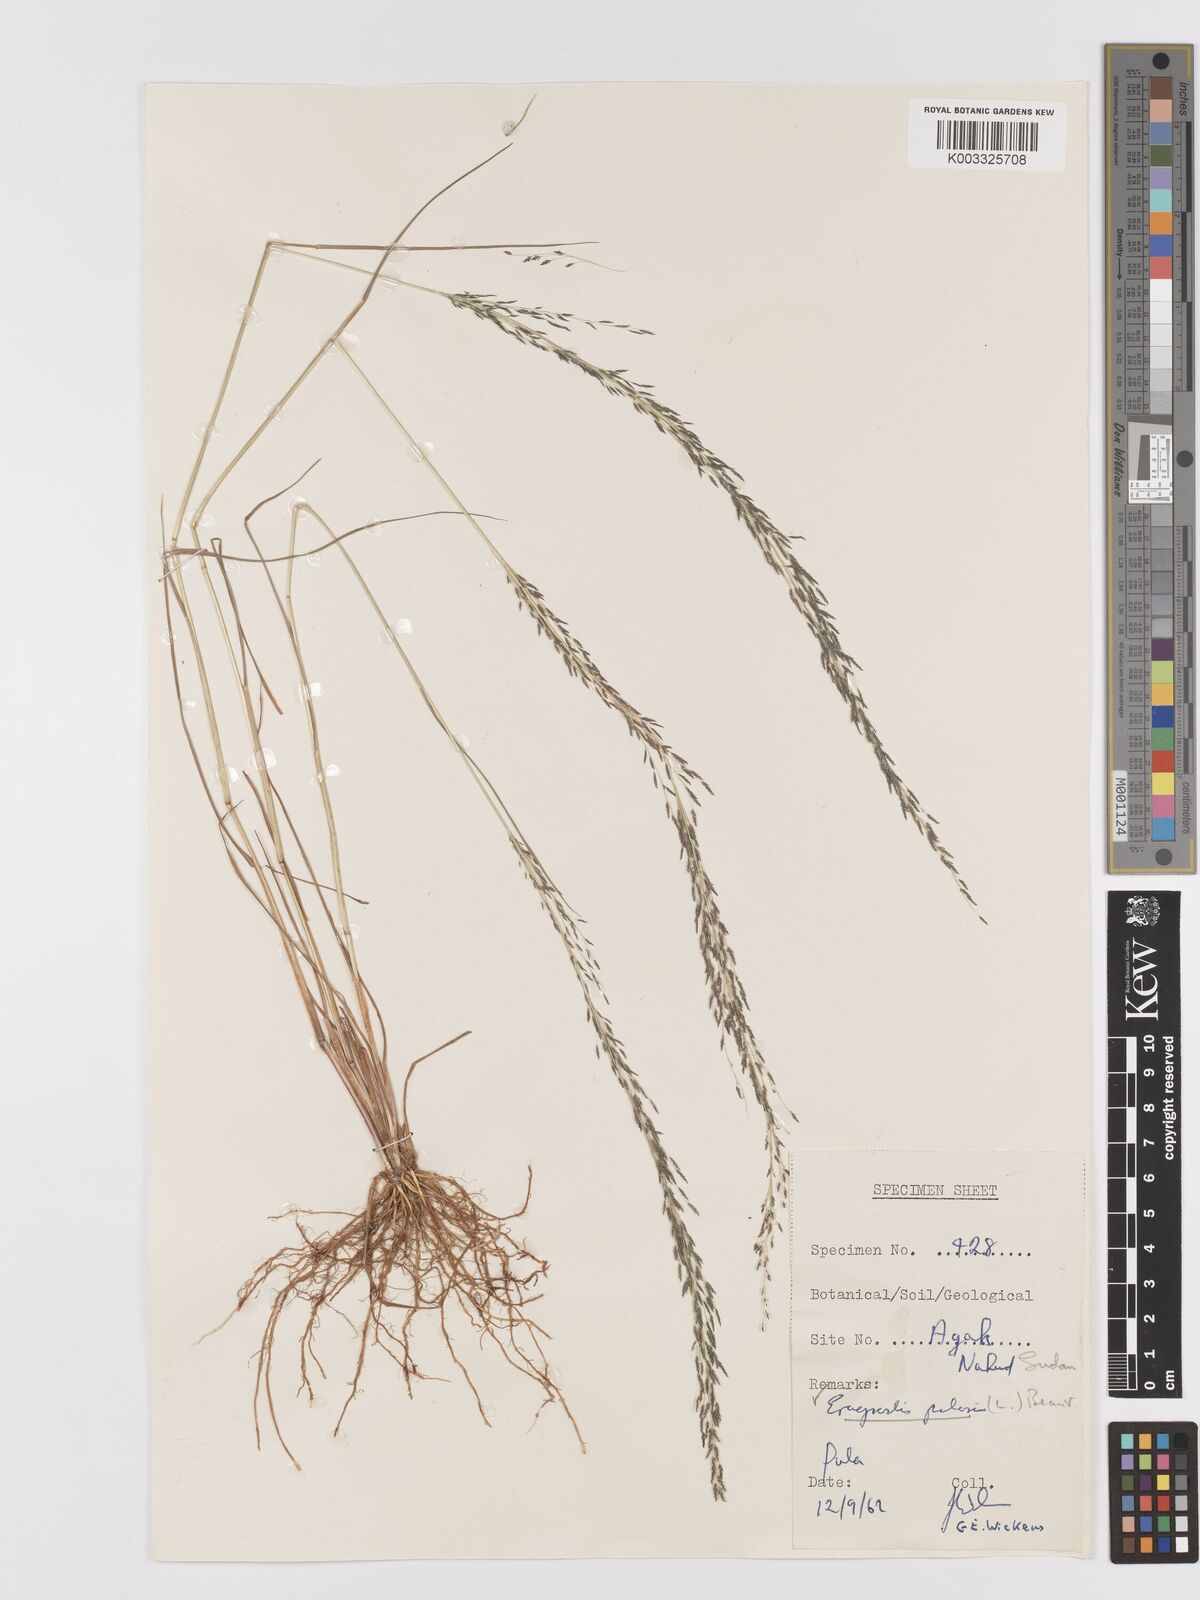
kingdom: Plantae
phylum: Tracheophyta
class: Liliopsida
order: Poales
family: Poaceae
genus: Eragrostis
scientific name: Eragrostis pilosa
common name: Indian lovegrass
